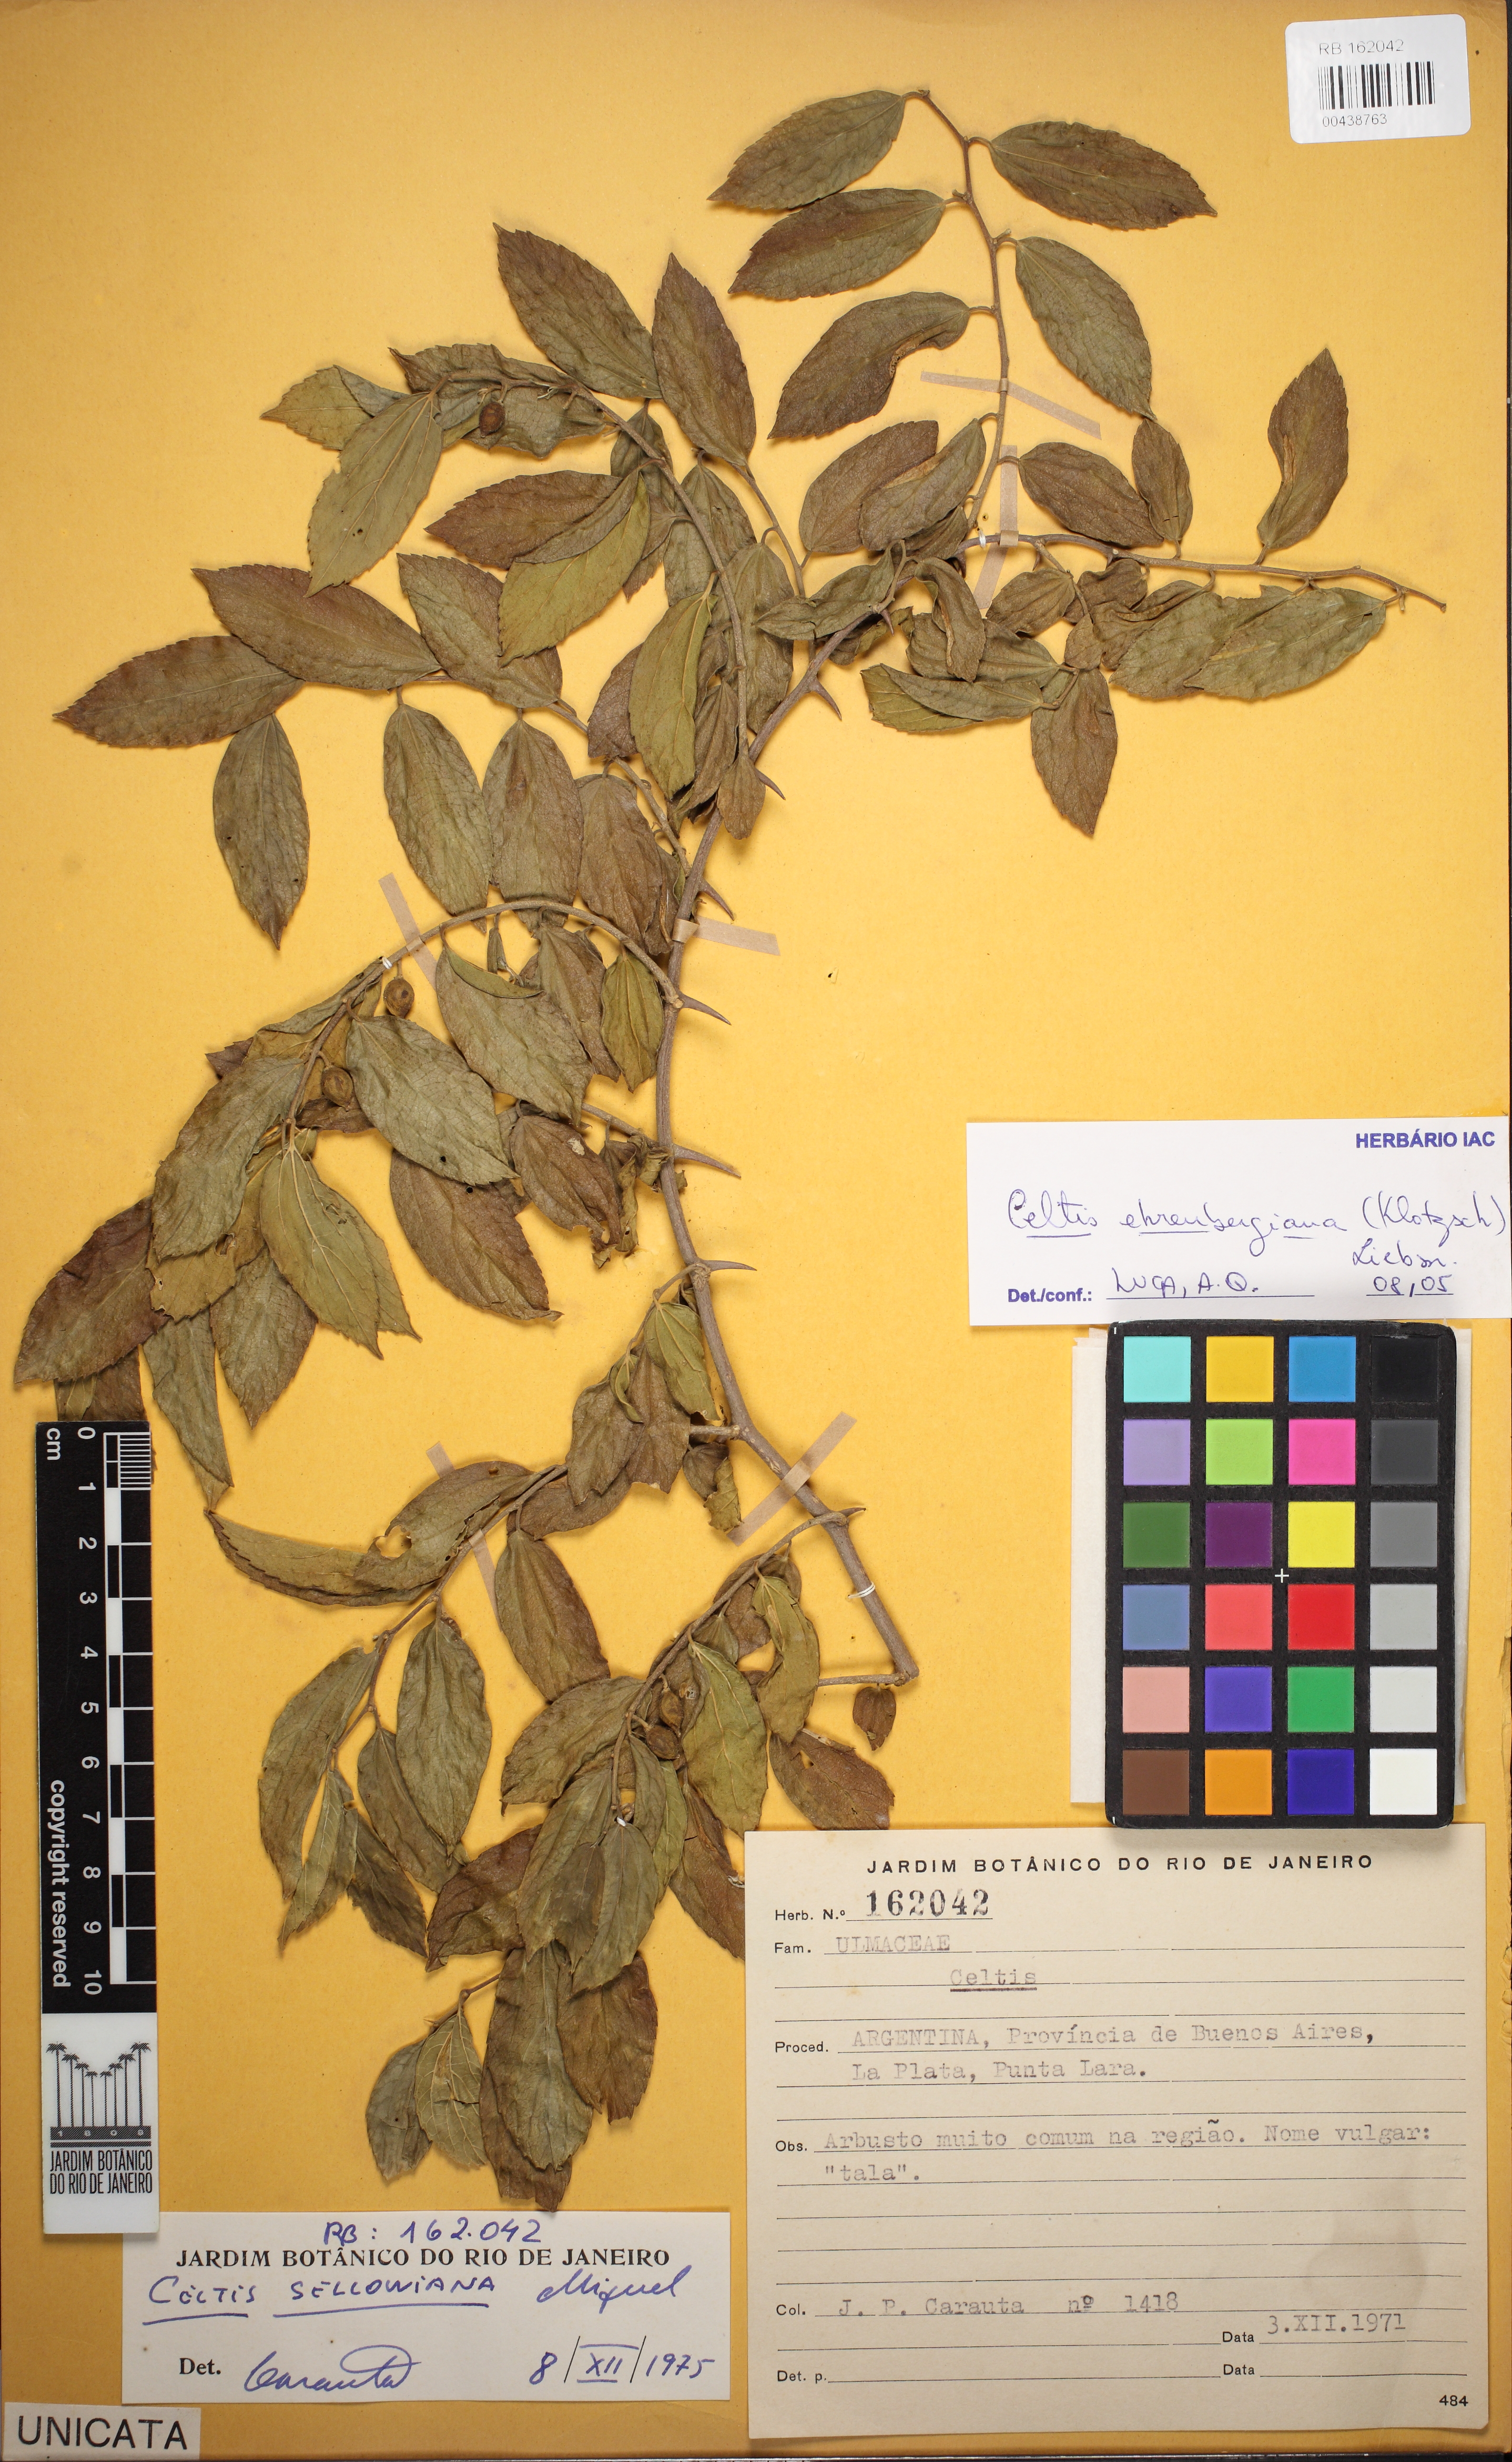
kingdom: Plantae
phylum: Tracheophyta
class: Magnoliopsida
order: Rosales
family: Cannabaceae
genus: Celtis
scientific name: Celtis iguanaea
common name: Iguana hackberry
